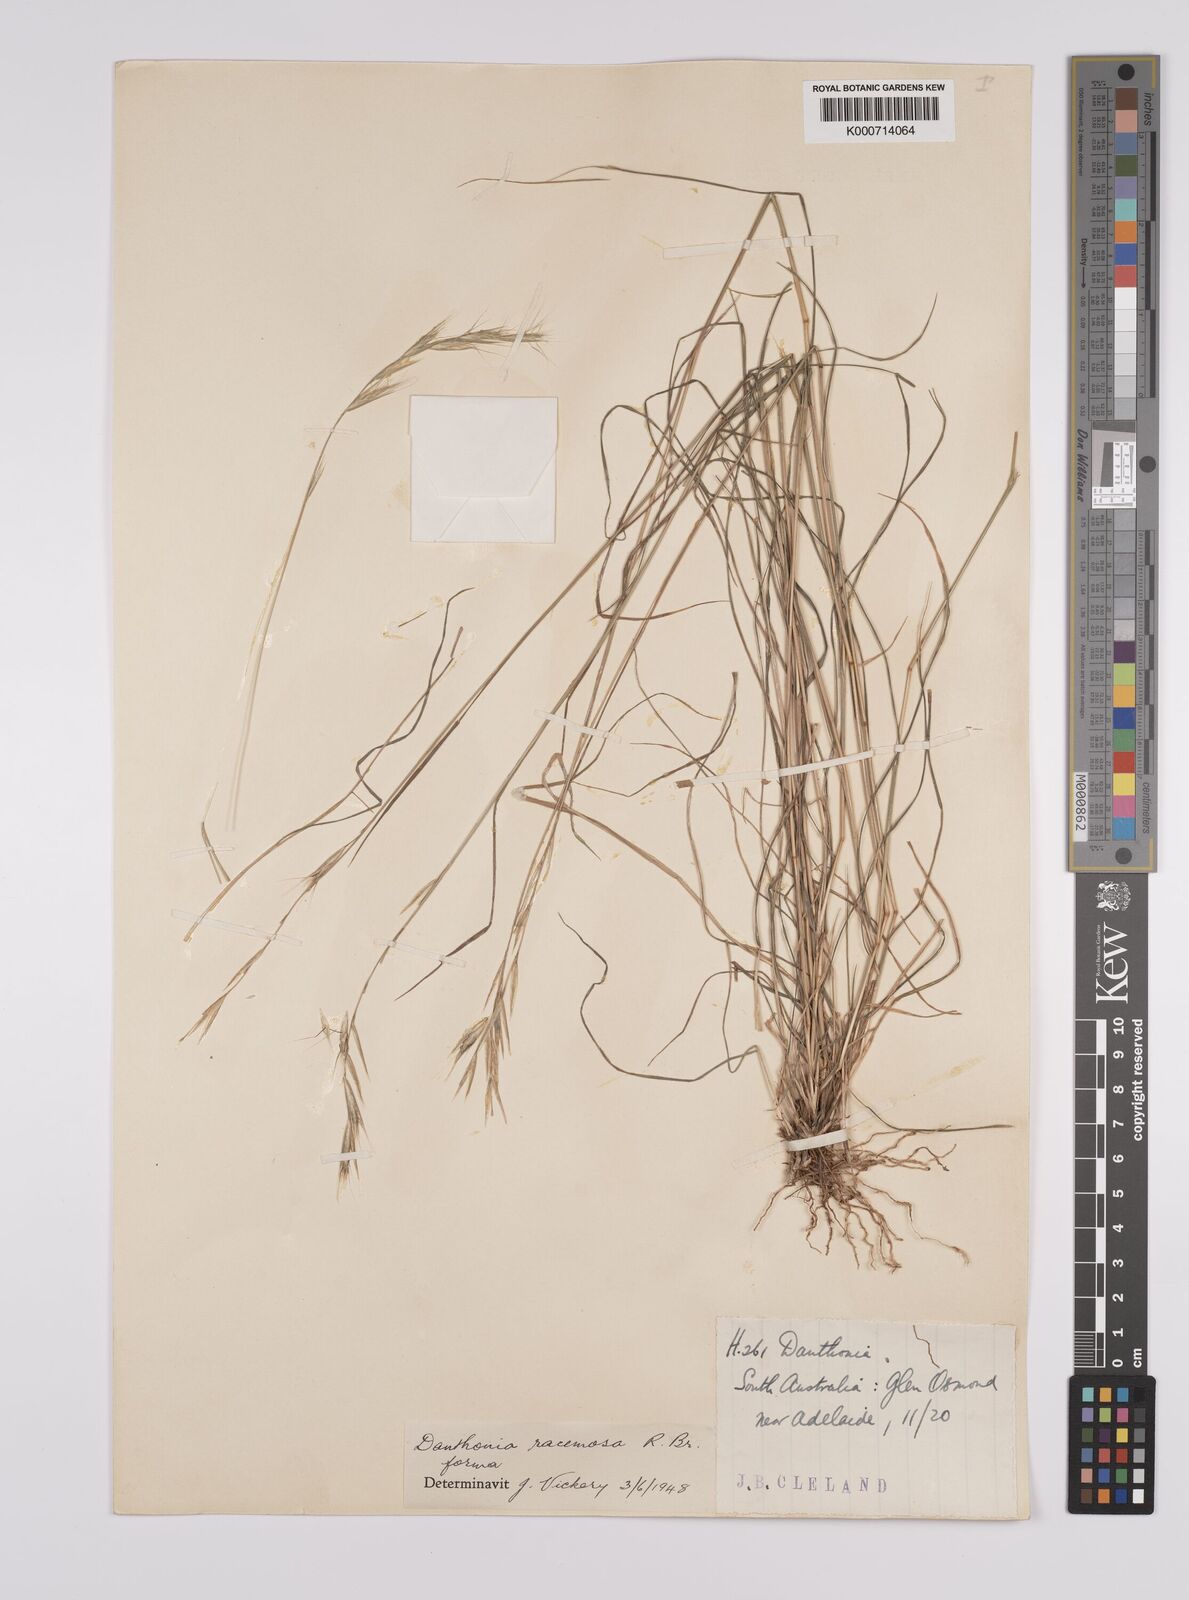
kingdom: Plantae
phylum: Tracheophyta
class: Liliopsida
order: Poales
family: Poaceae
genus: Rytidosperma
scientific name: Rytidosperma racemosum
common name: Wallaby-grass
